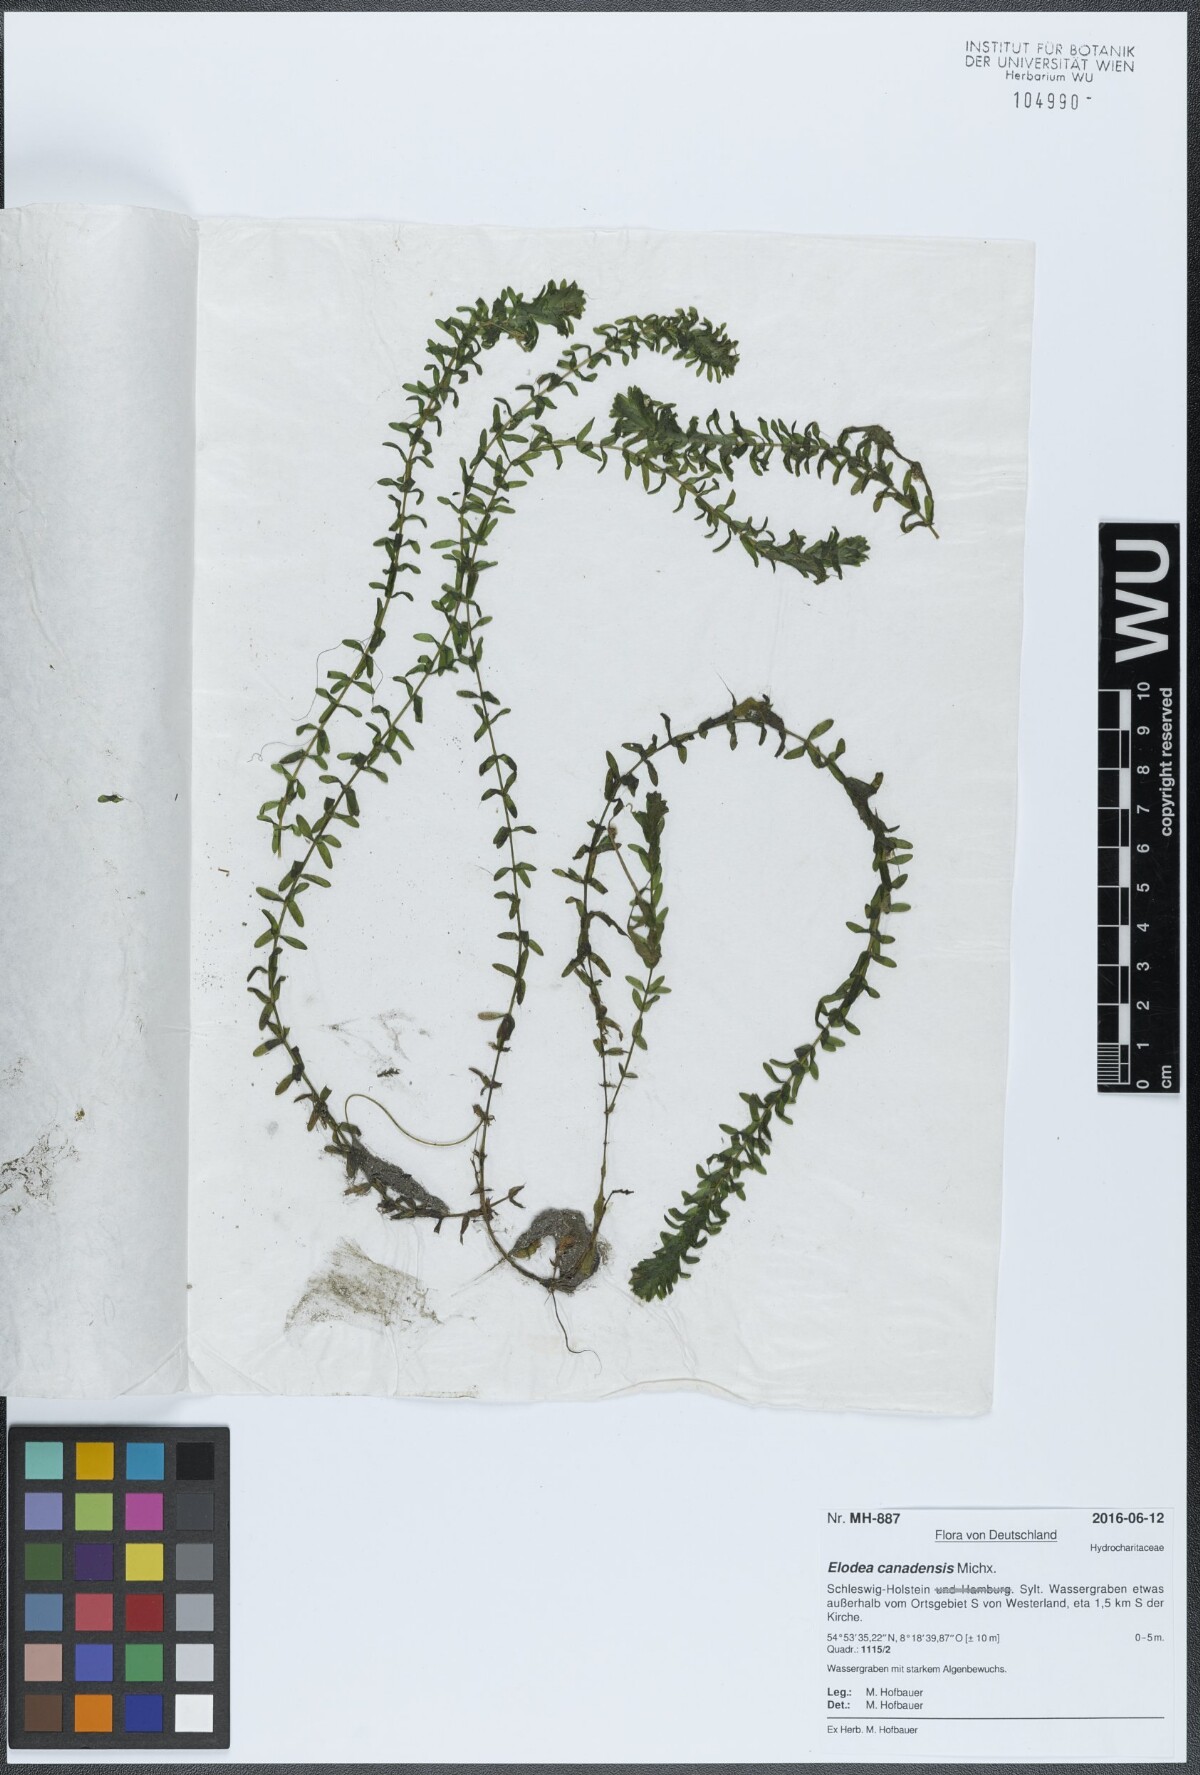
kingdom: Plantae
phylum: Tracheophyta
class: Liliopsida
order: Alismatales
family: Hydrocharitaceae
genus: Elodea
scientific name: Elodea canadensis
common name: Canadian waterweed
